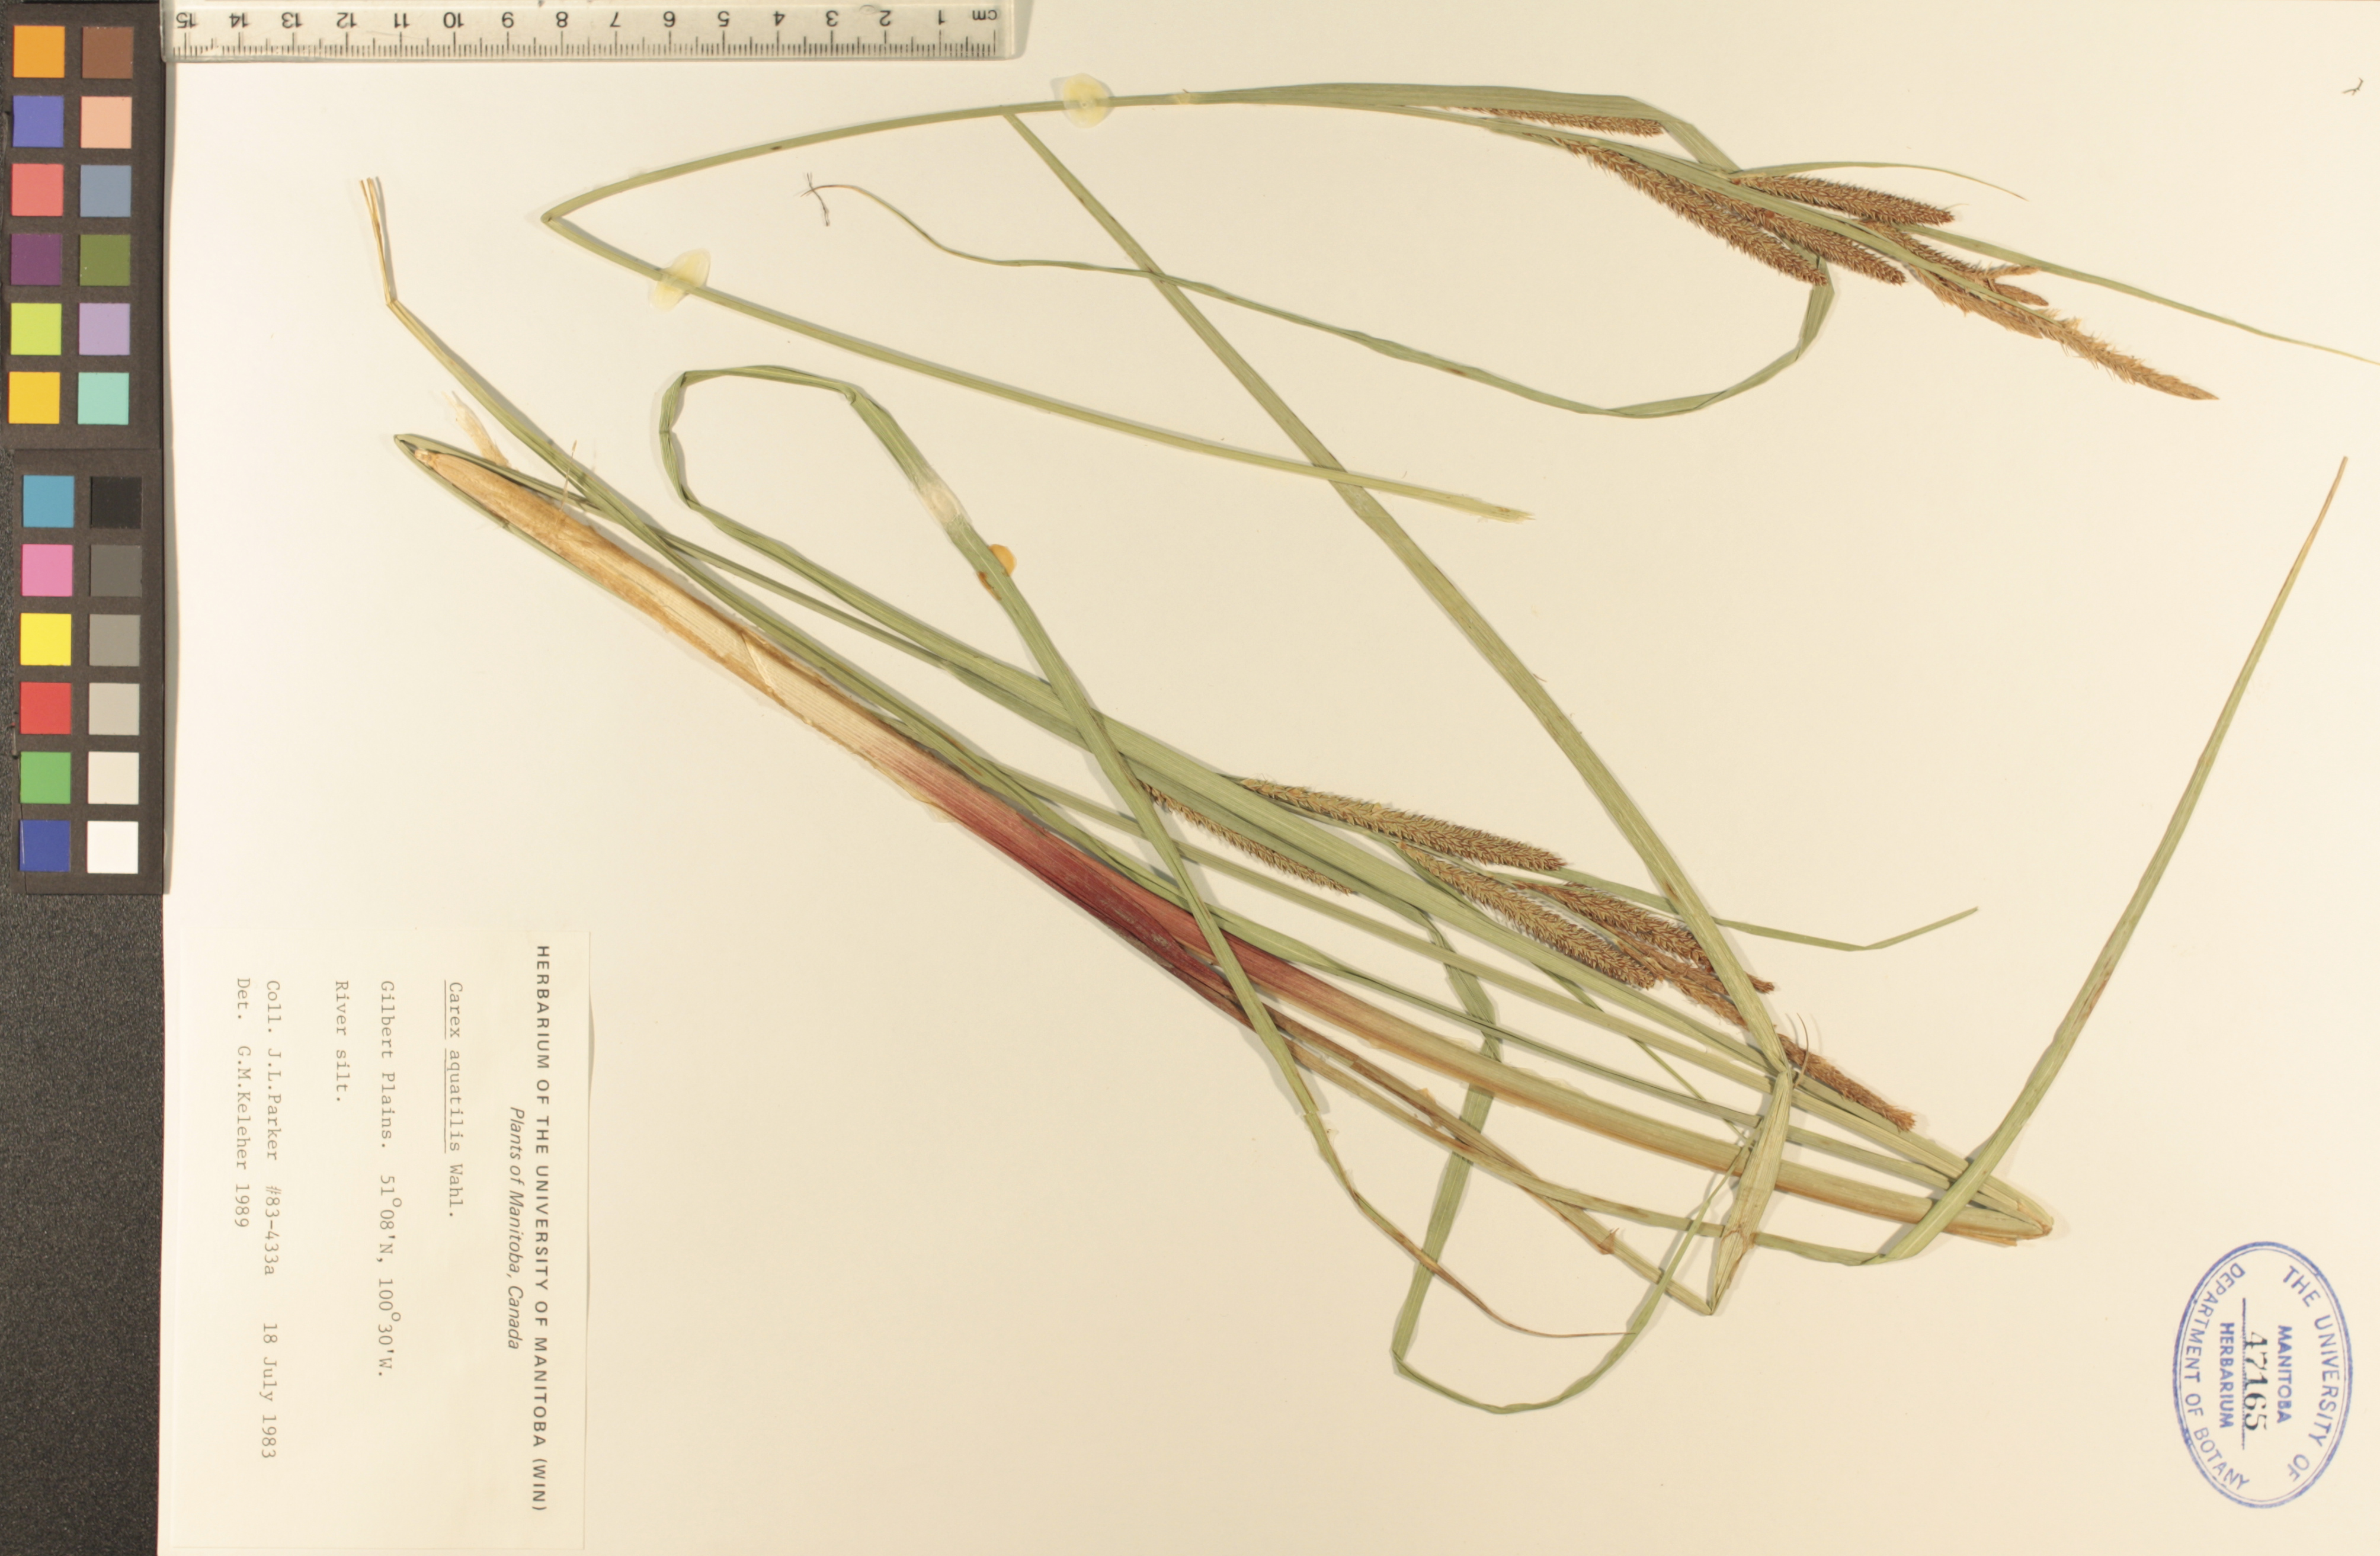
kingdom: Plantae
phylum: Tracheophyta
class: Liliopsida
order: Poales
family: Cyperaceae
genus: Carex
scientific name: Carex aquatilis
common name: Water sedge
